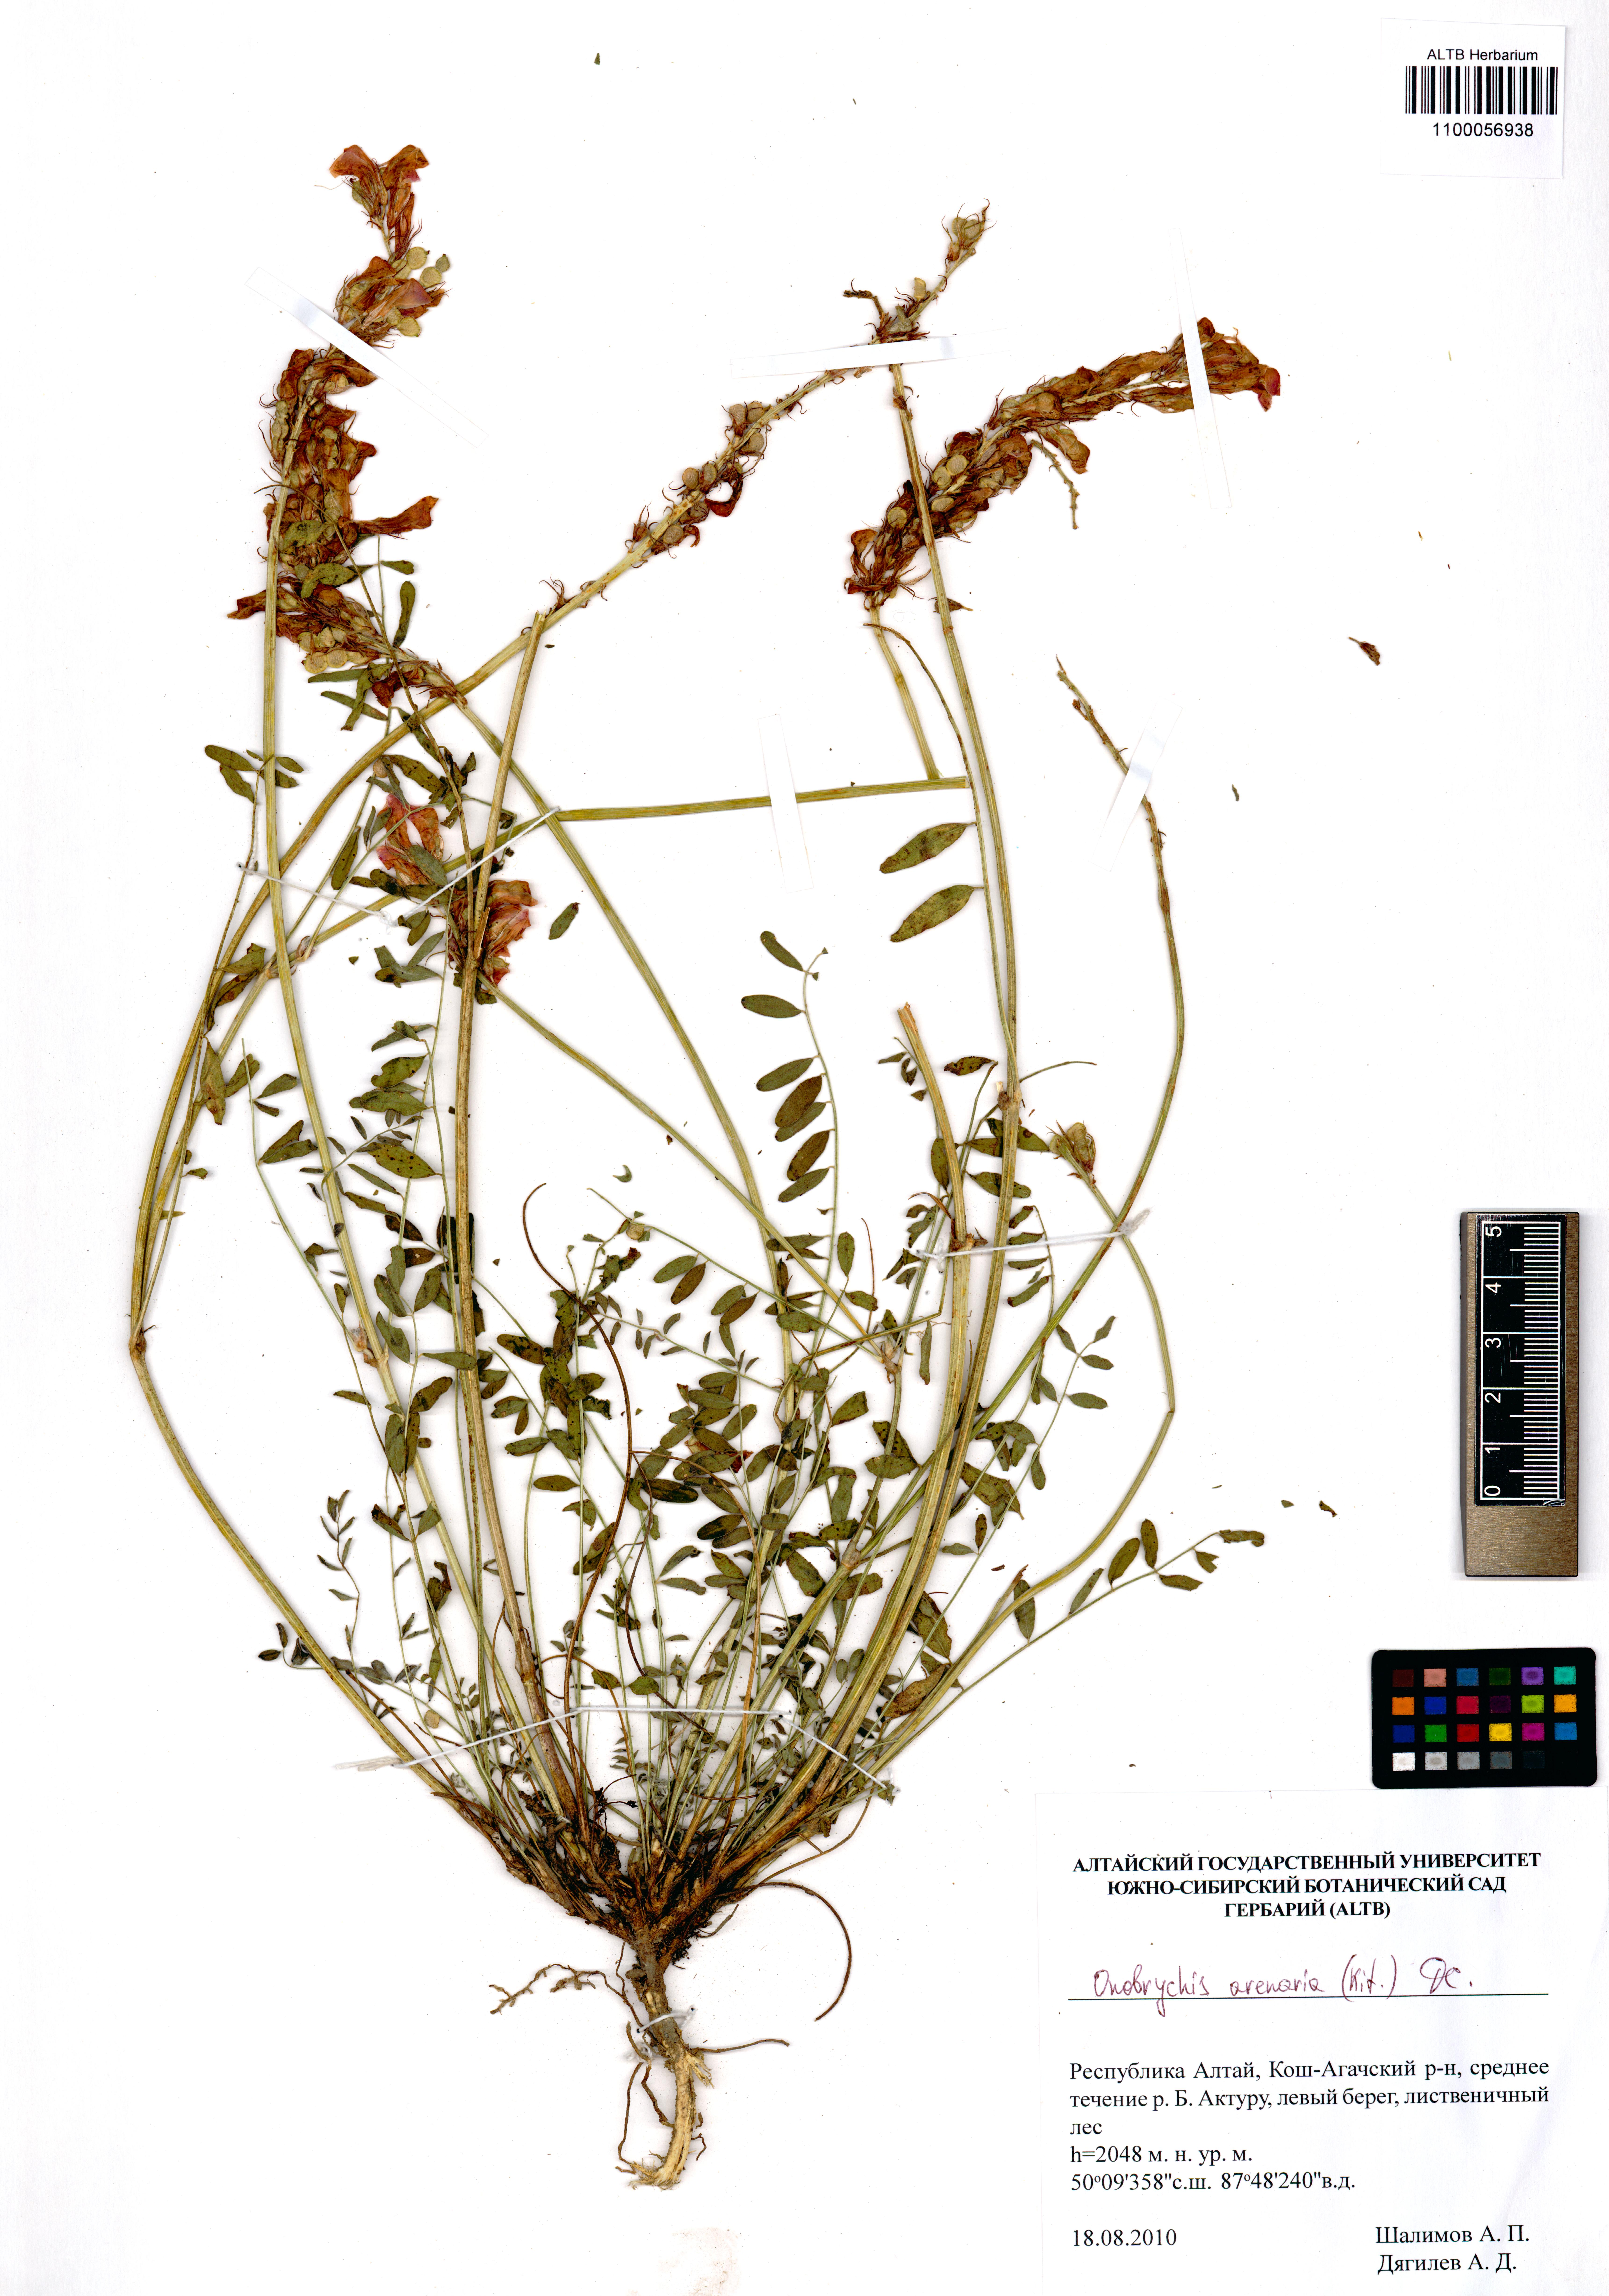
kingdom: Plantae
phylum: Tracheophyta
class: Magnoliopsida
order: Fabales
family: Fabaceae
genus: Onobrychis
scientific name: Onobrychis arenaria
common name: Sand esparcet
